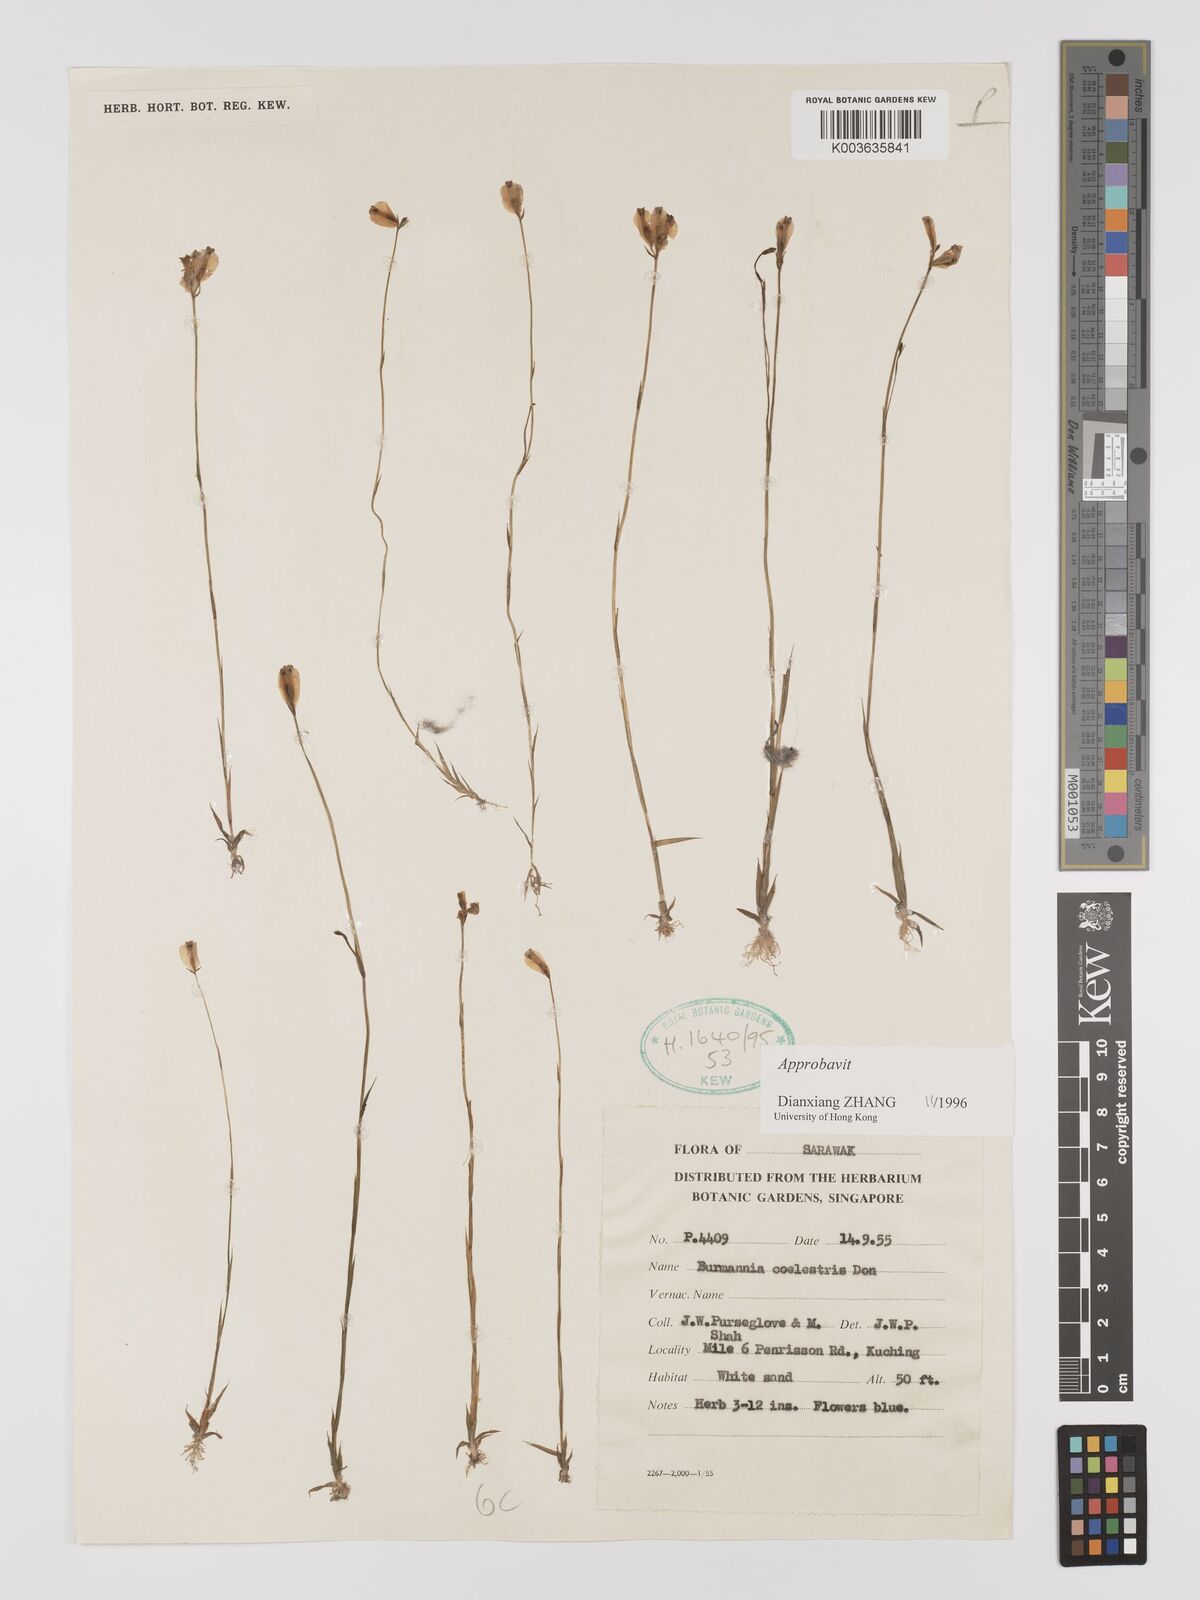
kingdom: Plantae
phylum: Tracheophyta
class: Liliopsida
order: Dioscoreales
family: Burmanniaceae
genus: Burmannia
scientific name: Burmannia disticha
